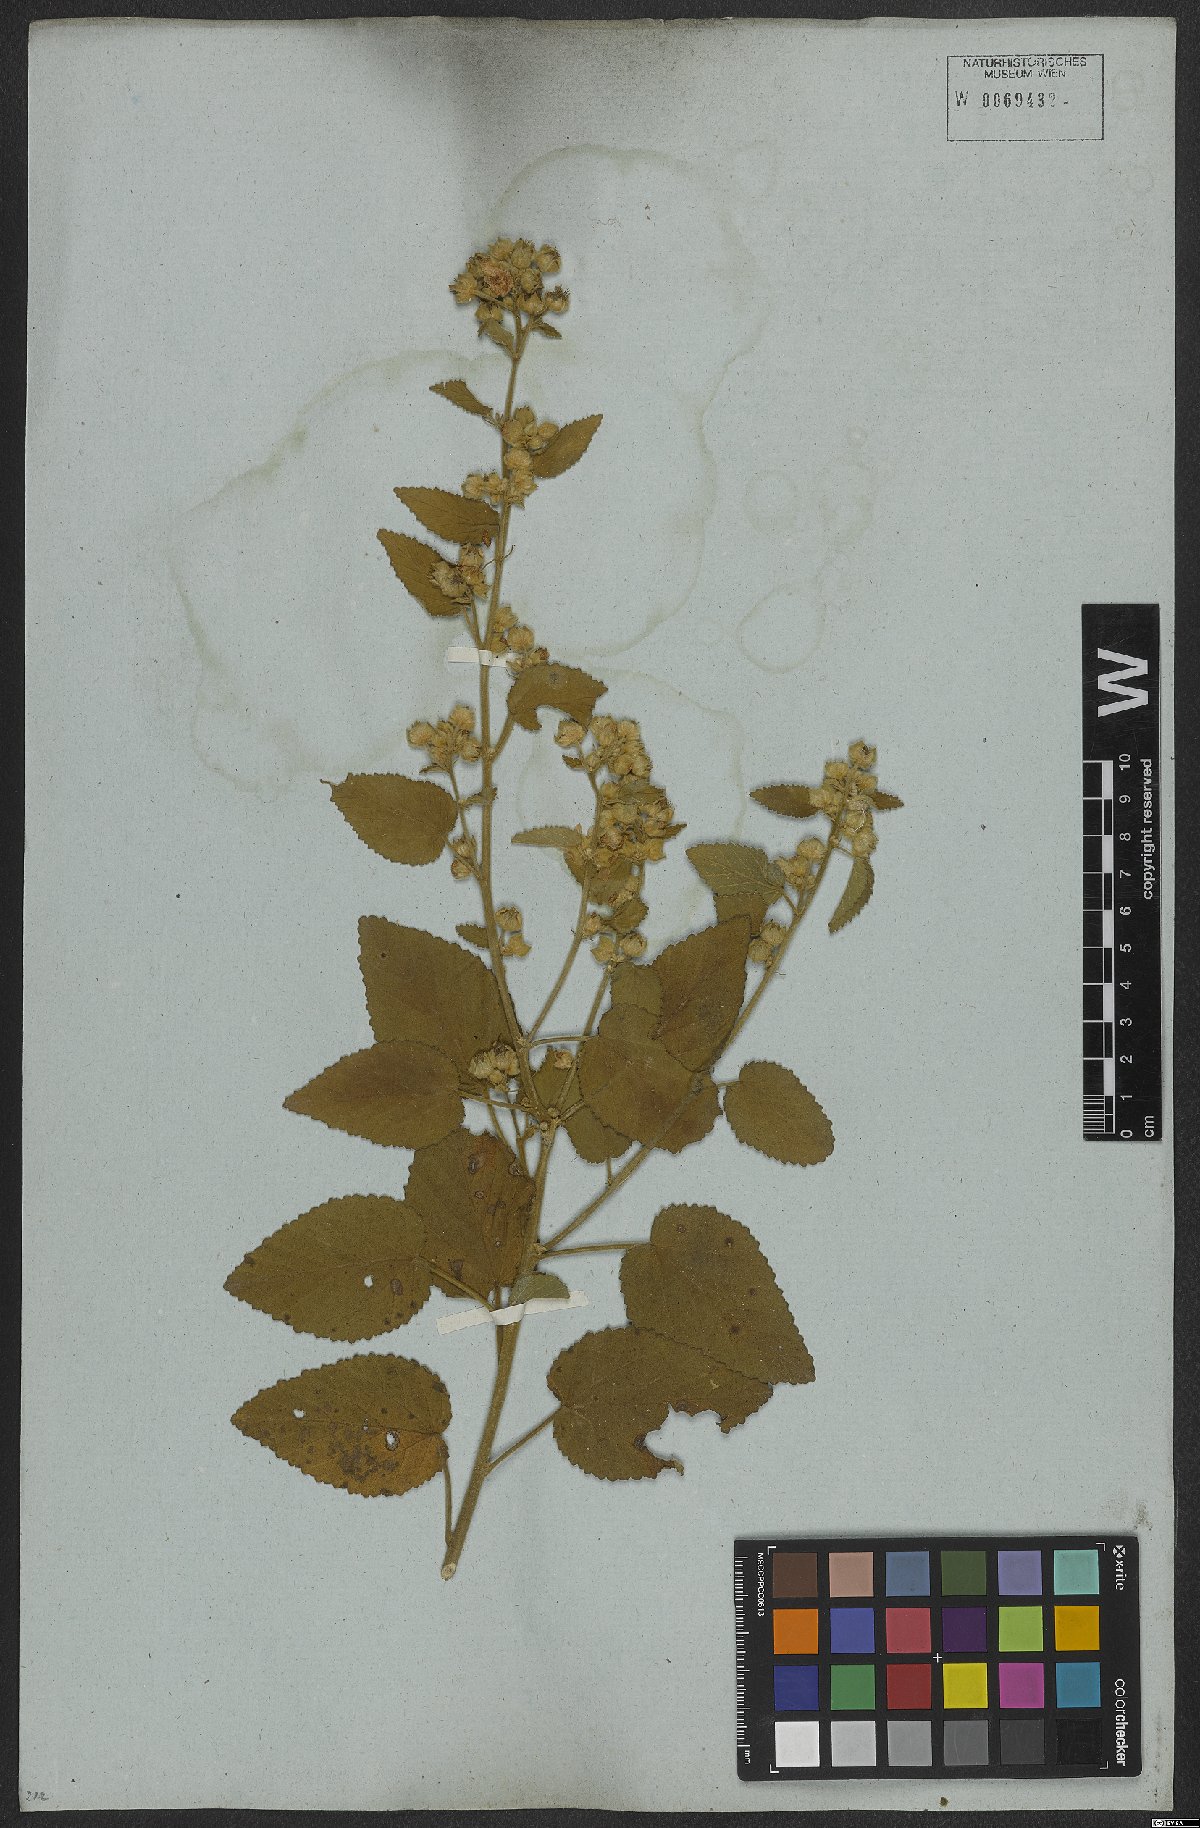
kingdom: Plantae
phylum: Tracheophyta
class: Magnoliopsida
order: Malvales
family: Malvaceae
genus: Sida
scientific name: Sida cordifolia
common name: Ilima
